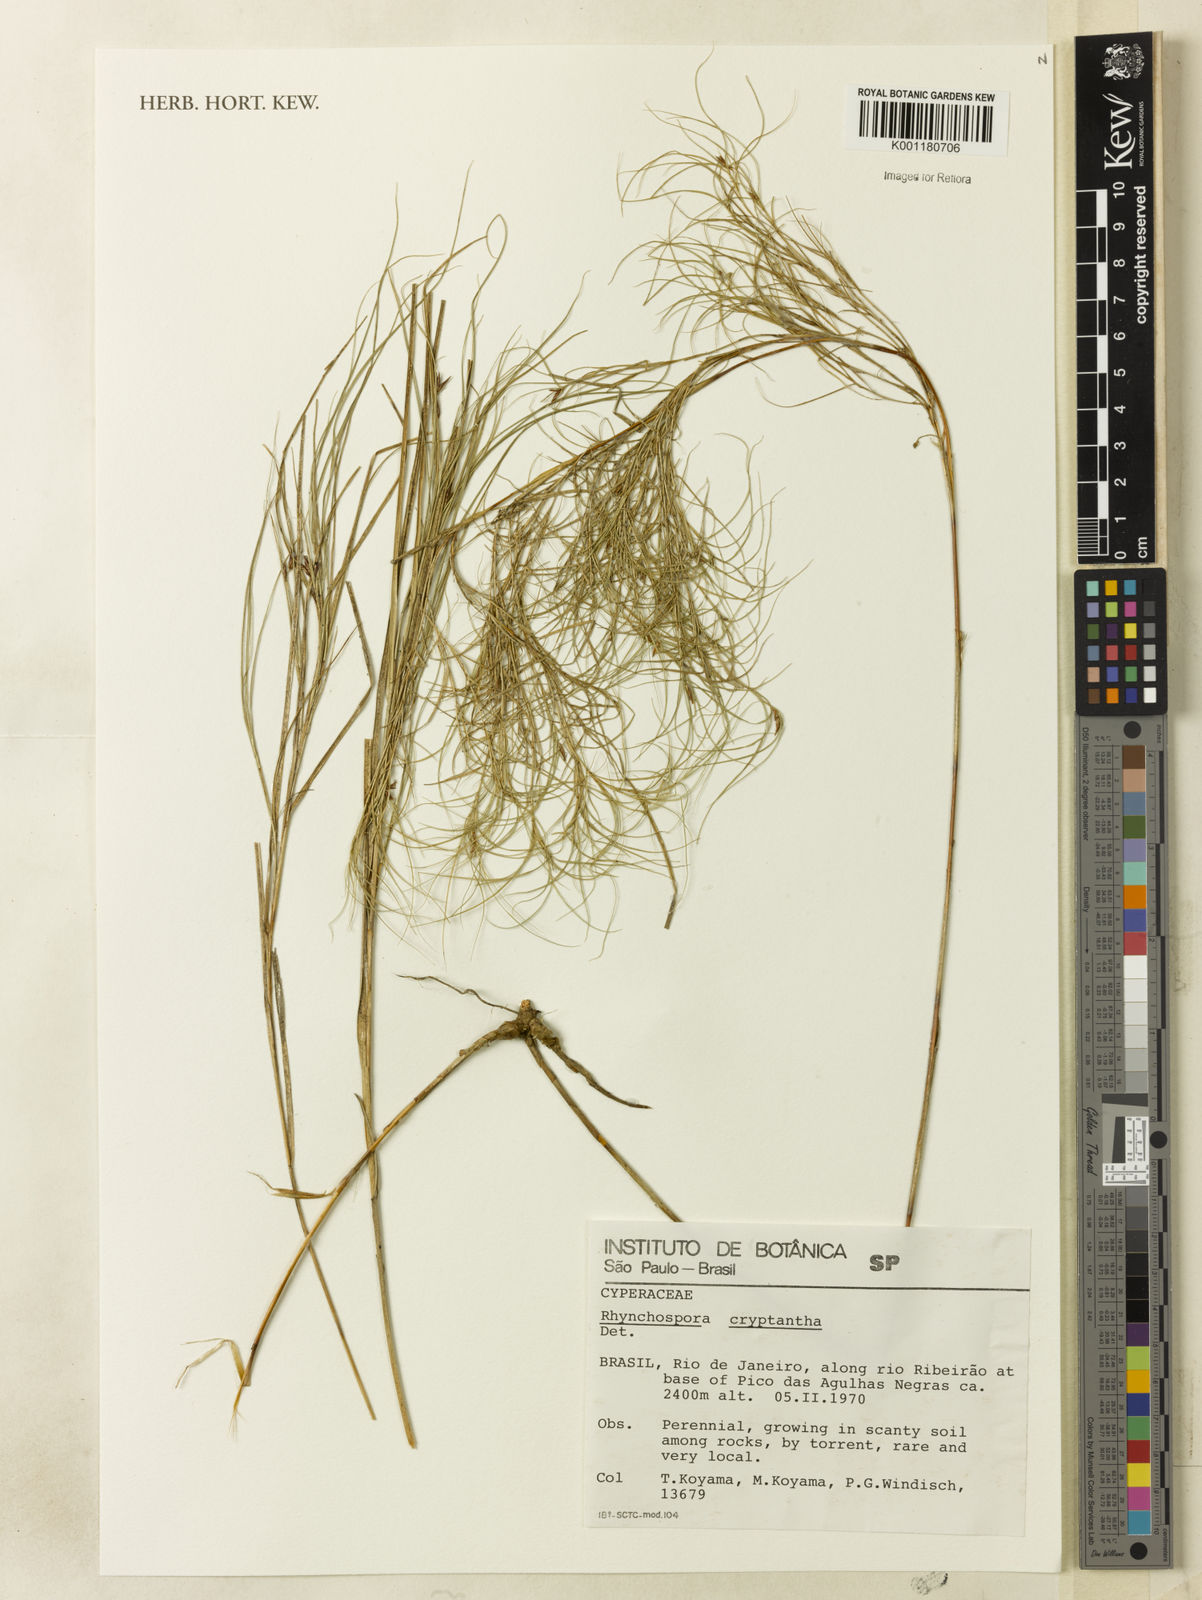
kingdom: Plantae
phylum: Tracheophyta
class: Liliopsida
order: Poales
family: Cyperaceae
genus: Rhynchospora
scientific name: Rhynchospora biflora
